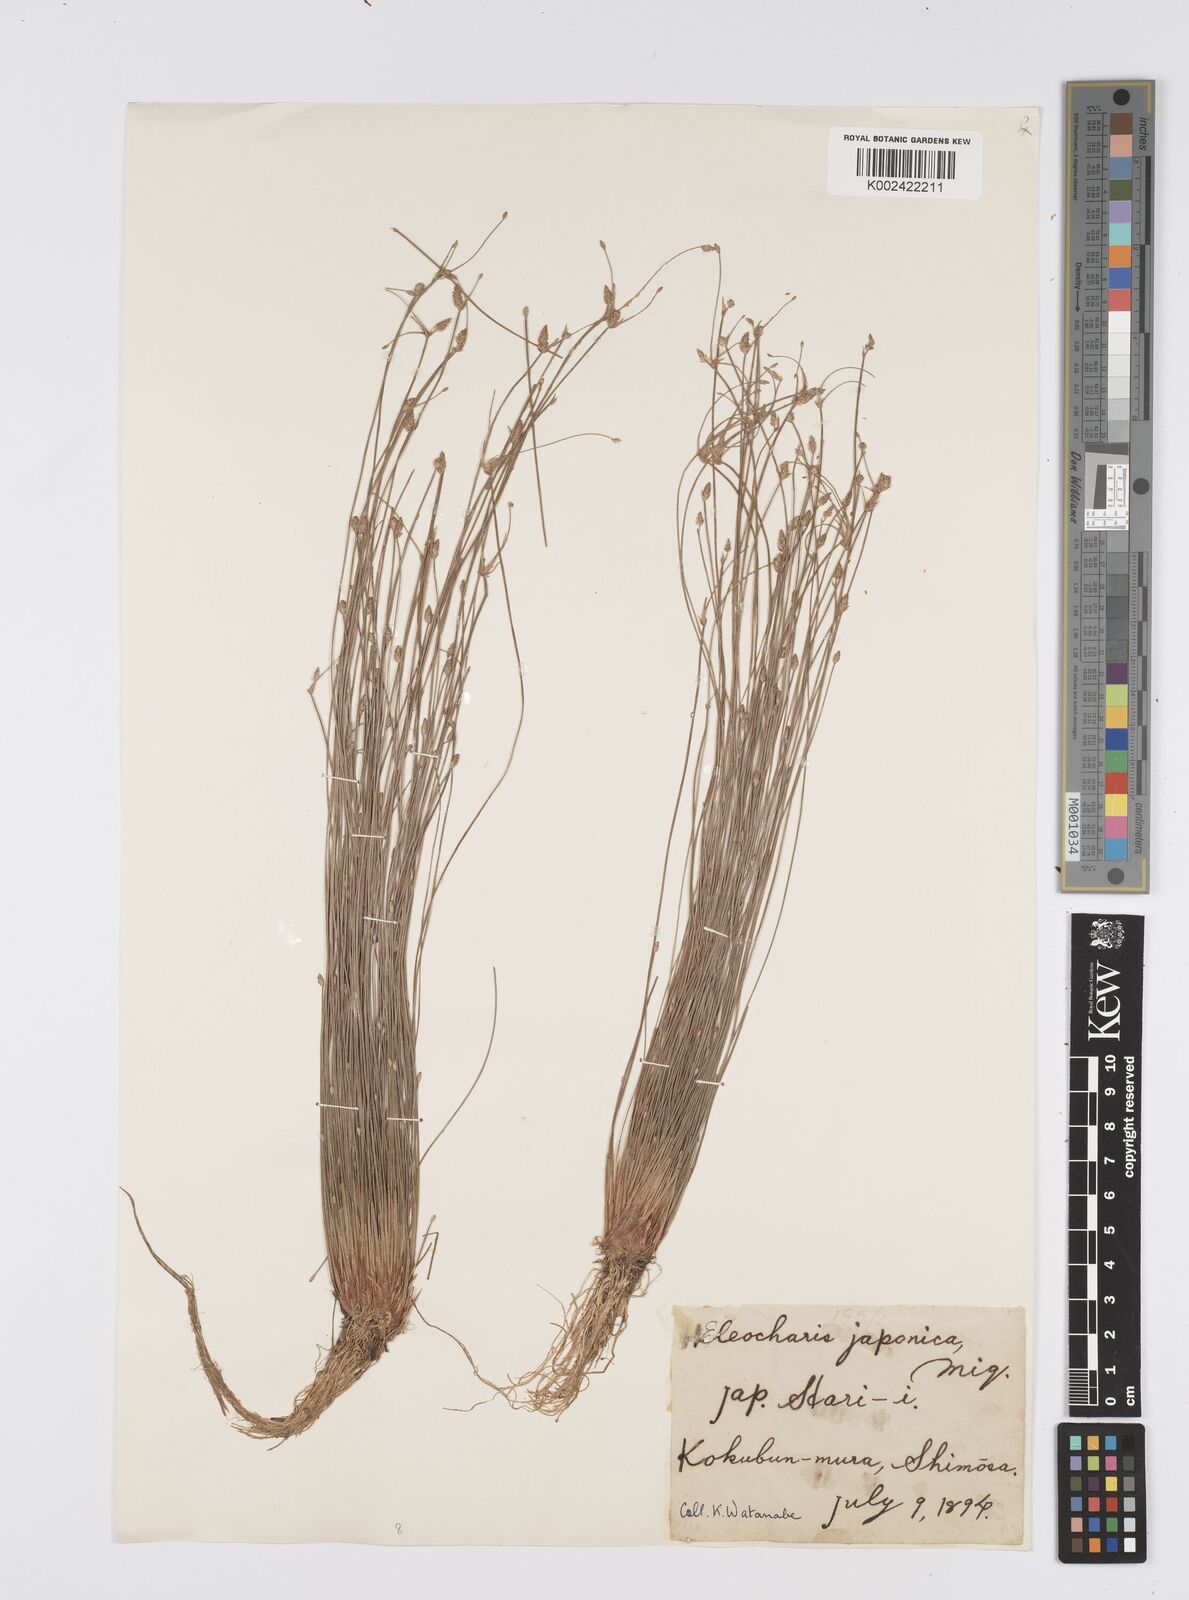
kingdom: Plantae
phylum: Tracheophyta
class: Liliopsida
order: Poales
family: Cyperaceae
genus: Eleocharis
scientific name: Eleocharis pellucida
